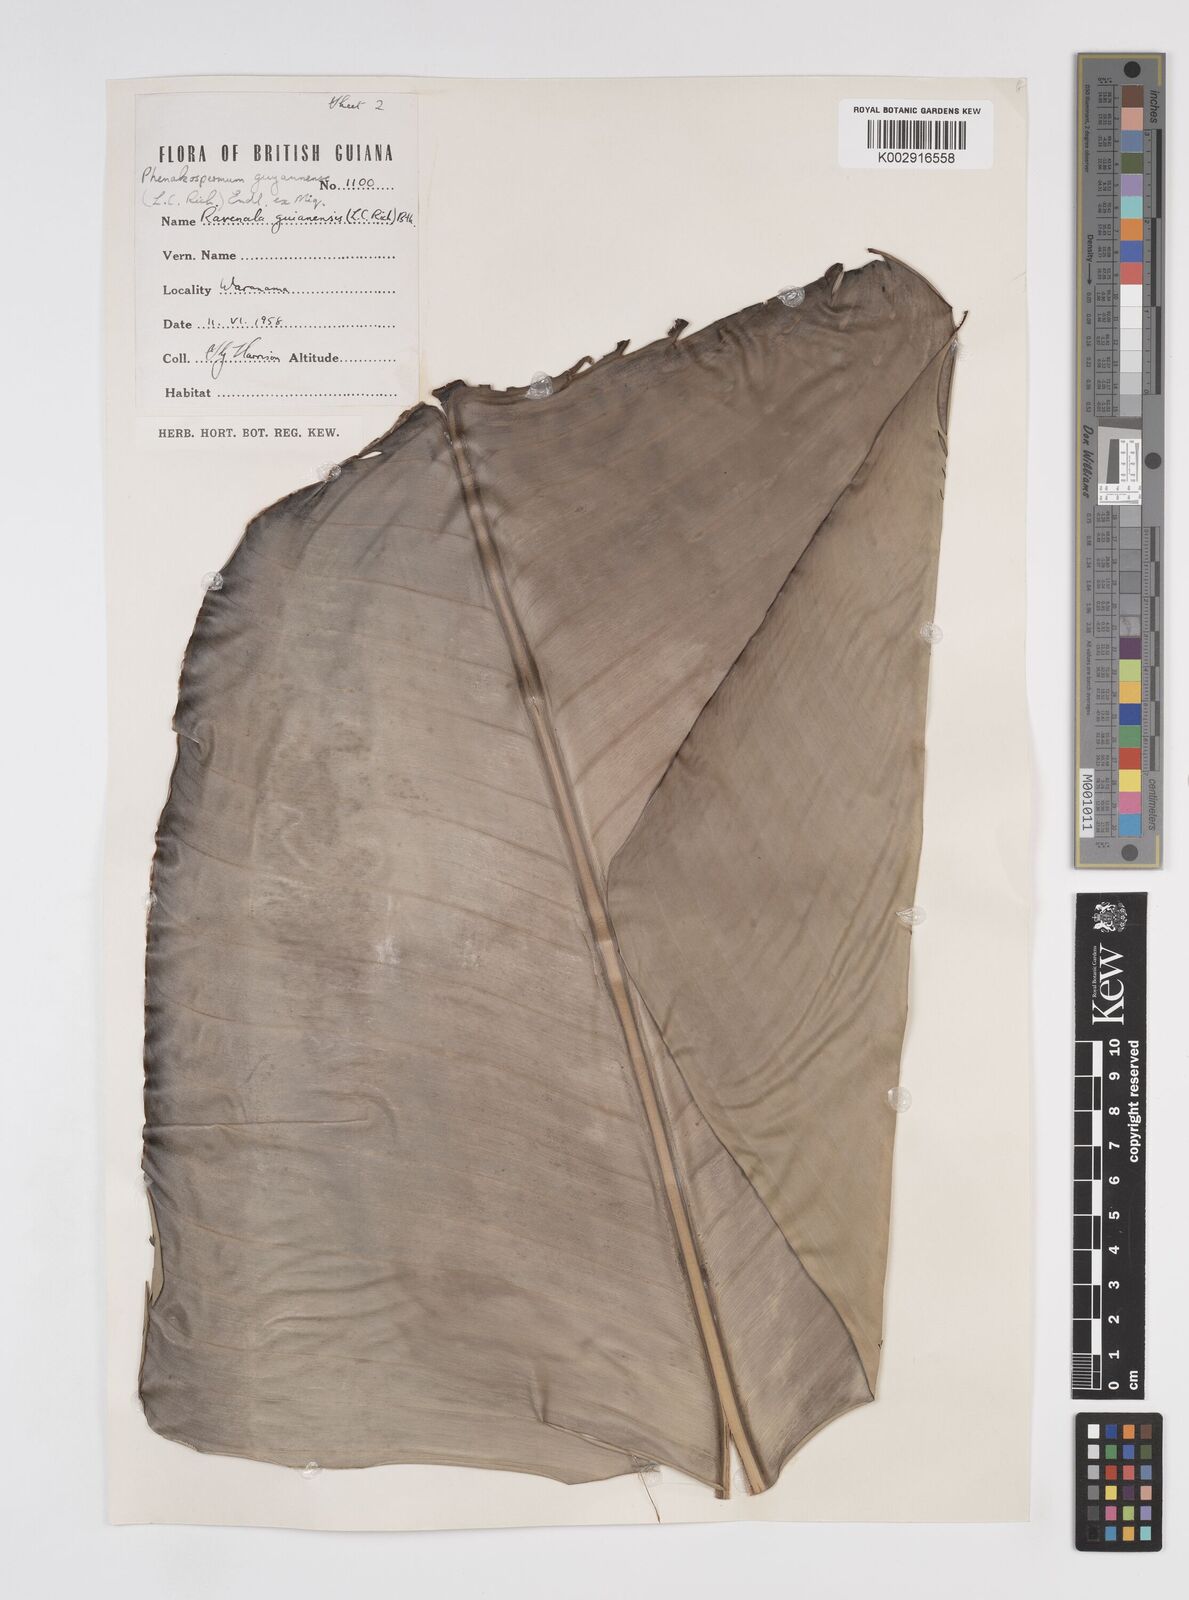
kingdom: Plantae
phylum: Tracheophyta
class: Liliopsida
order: Zingiberales
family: Strelitziaceae
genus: Phenakospermum
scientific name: Phenakospermum guyannense
